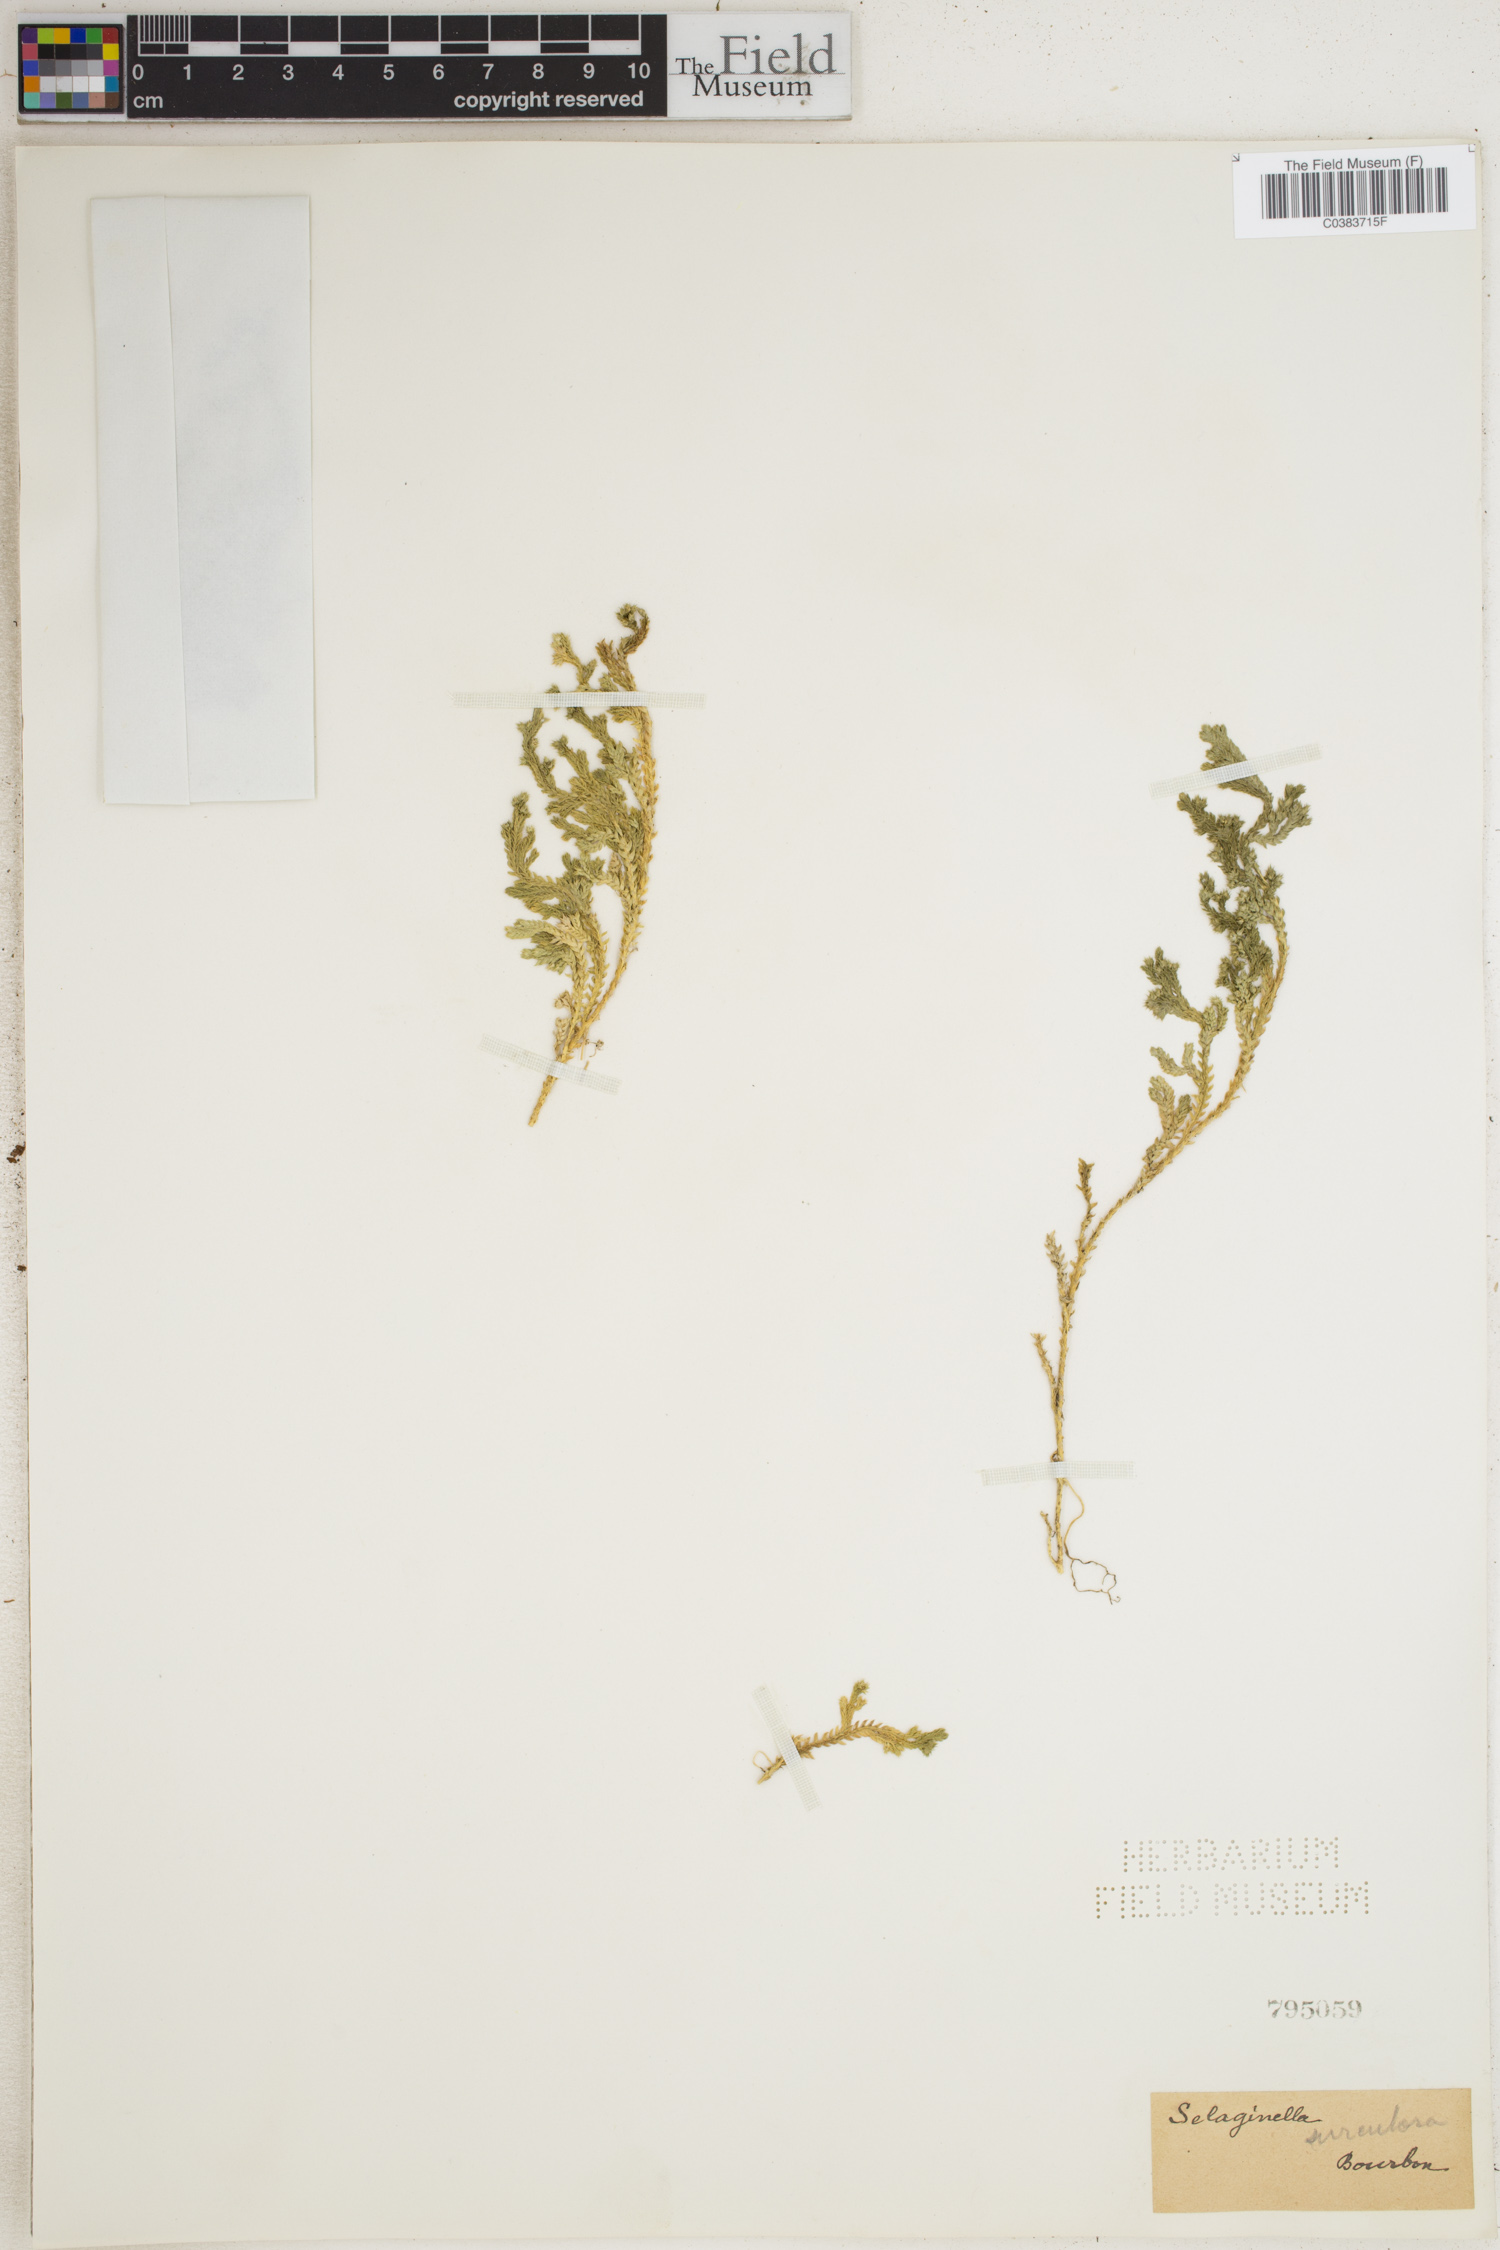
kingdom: Plantae
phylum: Tracheophyta
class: Lycopodiopsida
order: Selaginellales
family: Selaginellaceae
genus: Selaginella
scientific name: Selaginella
